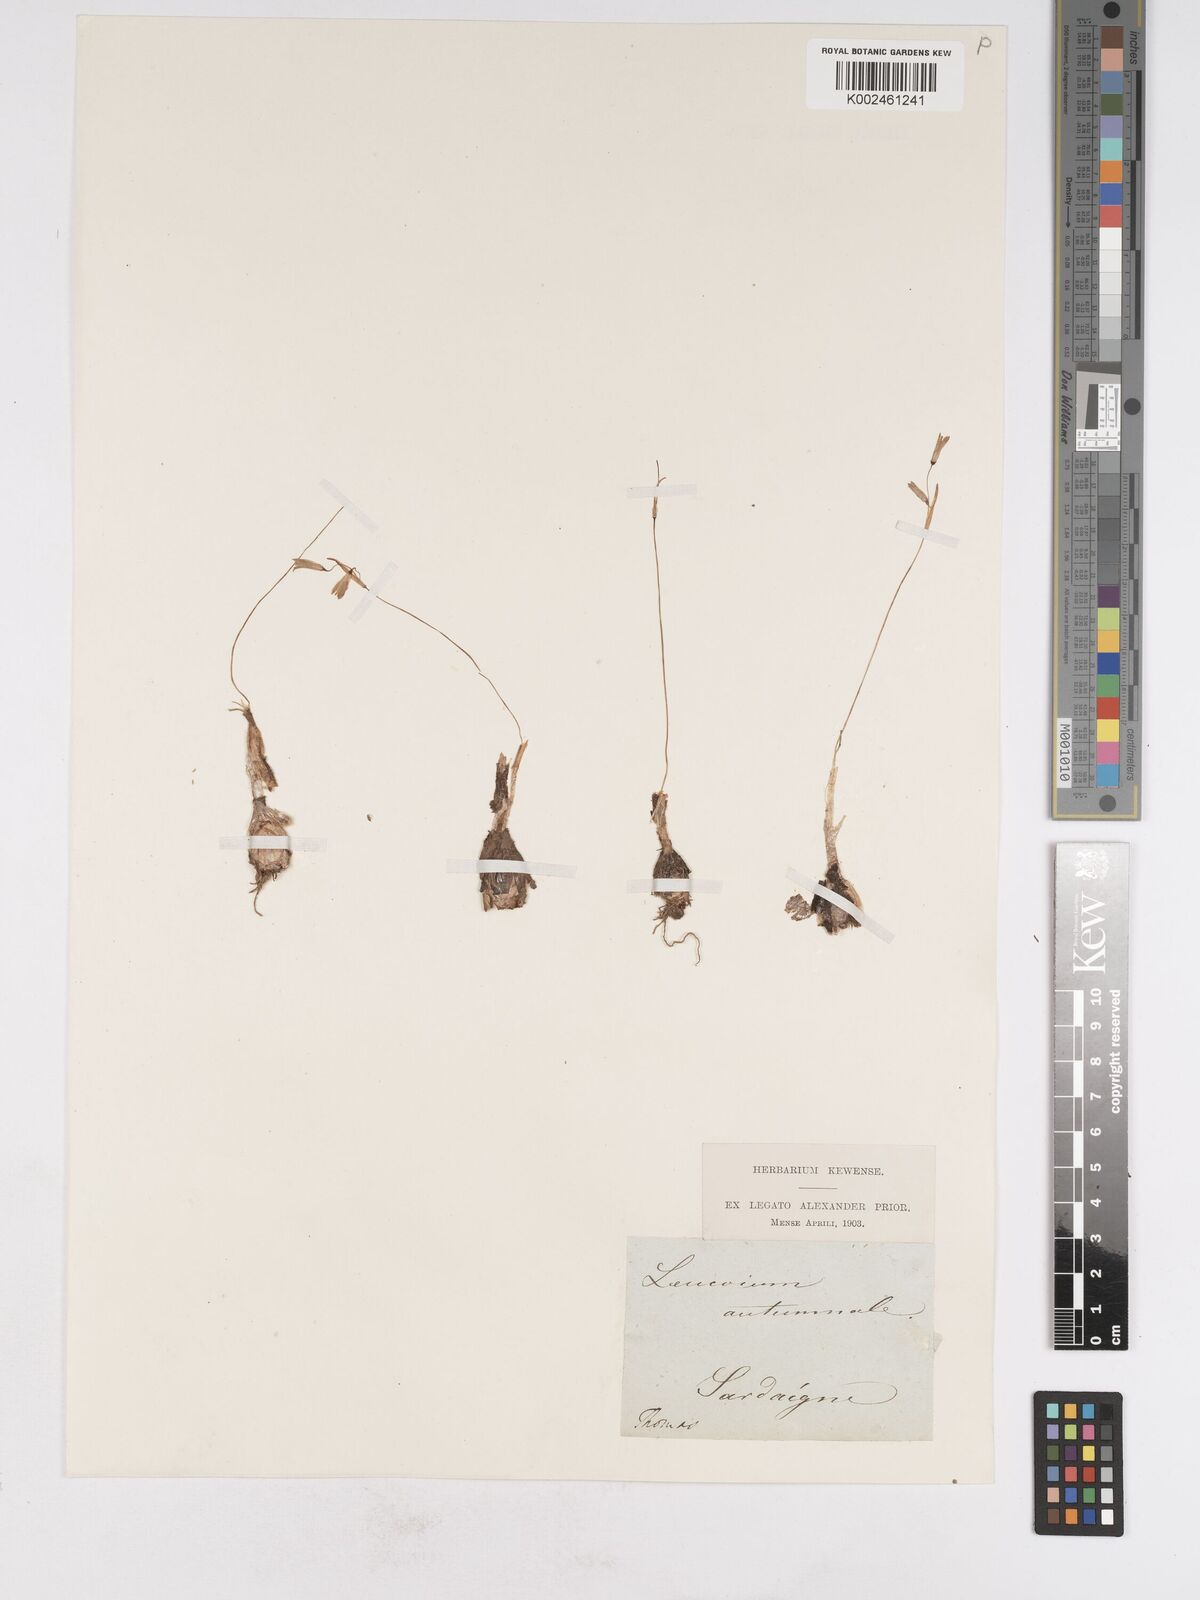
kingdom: Plantae
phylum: Tracheophyta
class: Liliopsida
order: Asparagales
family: Amaryllidaceae
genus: Acis
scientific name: Acis autumnalis
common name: Autumn snowflake
